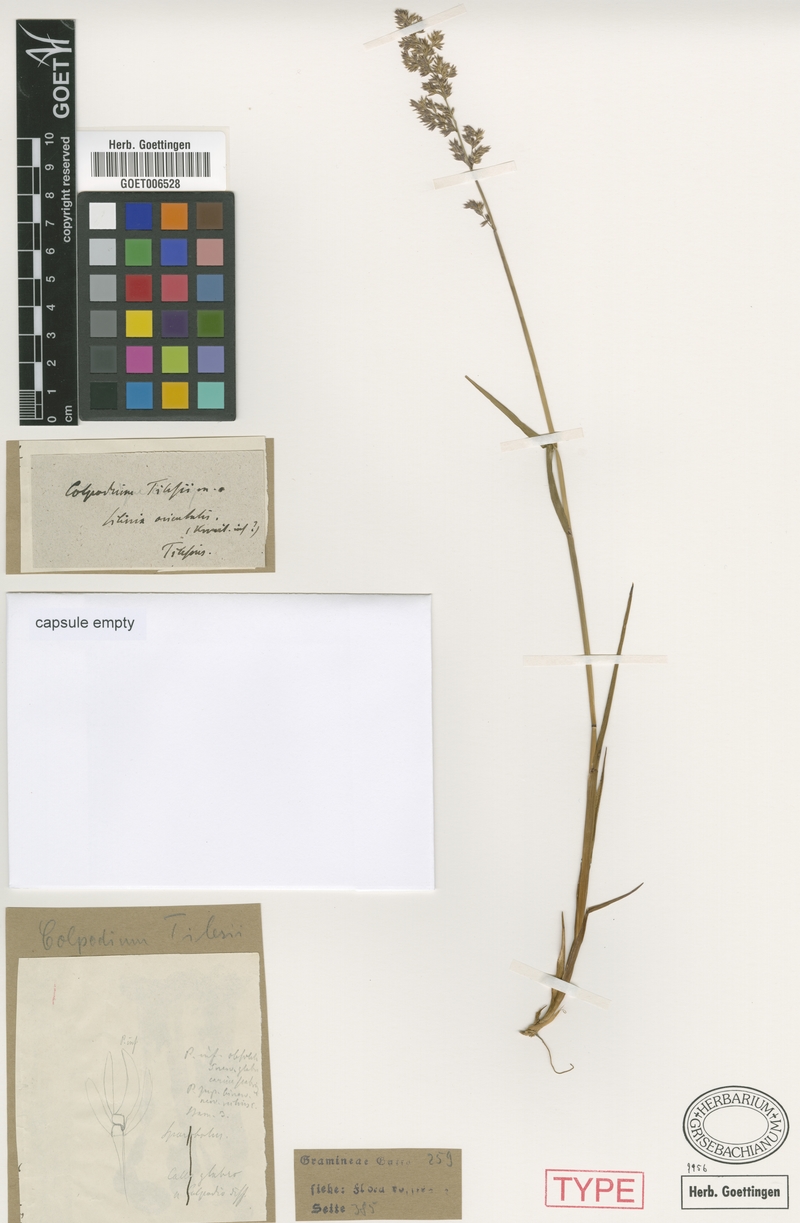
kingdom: Plantae
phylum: Tracheophyta
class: Liliopsida
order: Poales
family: Poaceae
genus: Arctagrostis
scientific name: Arctagrostis arundinacea
